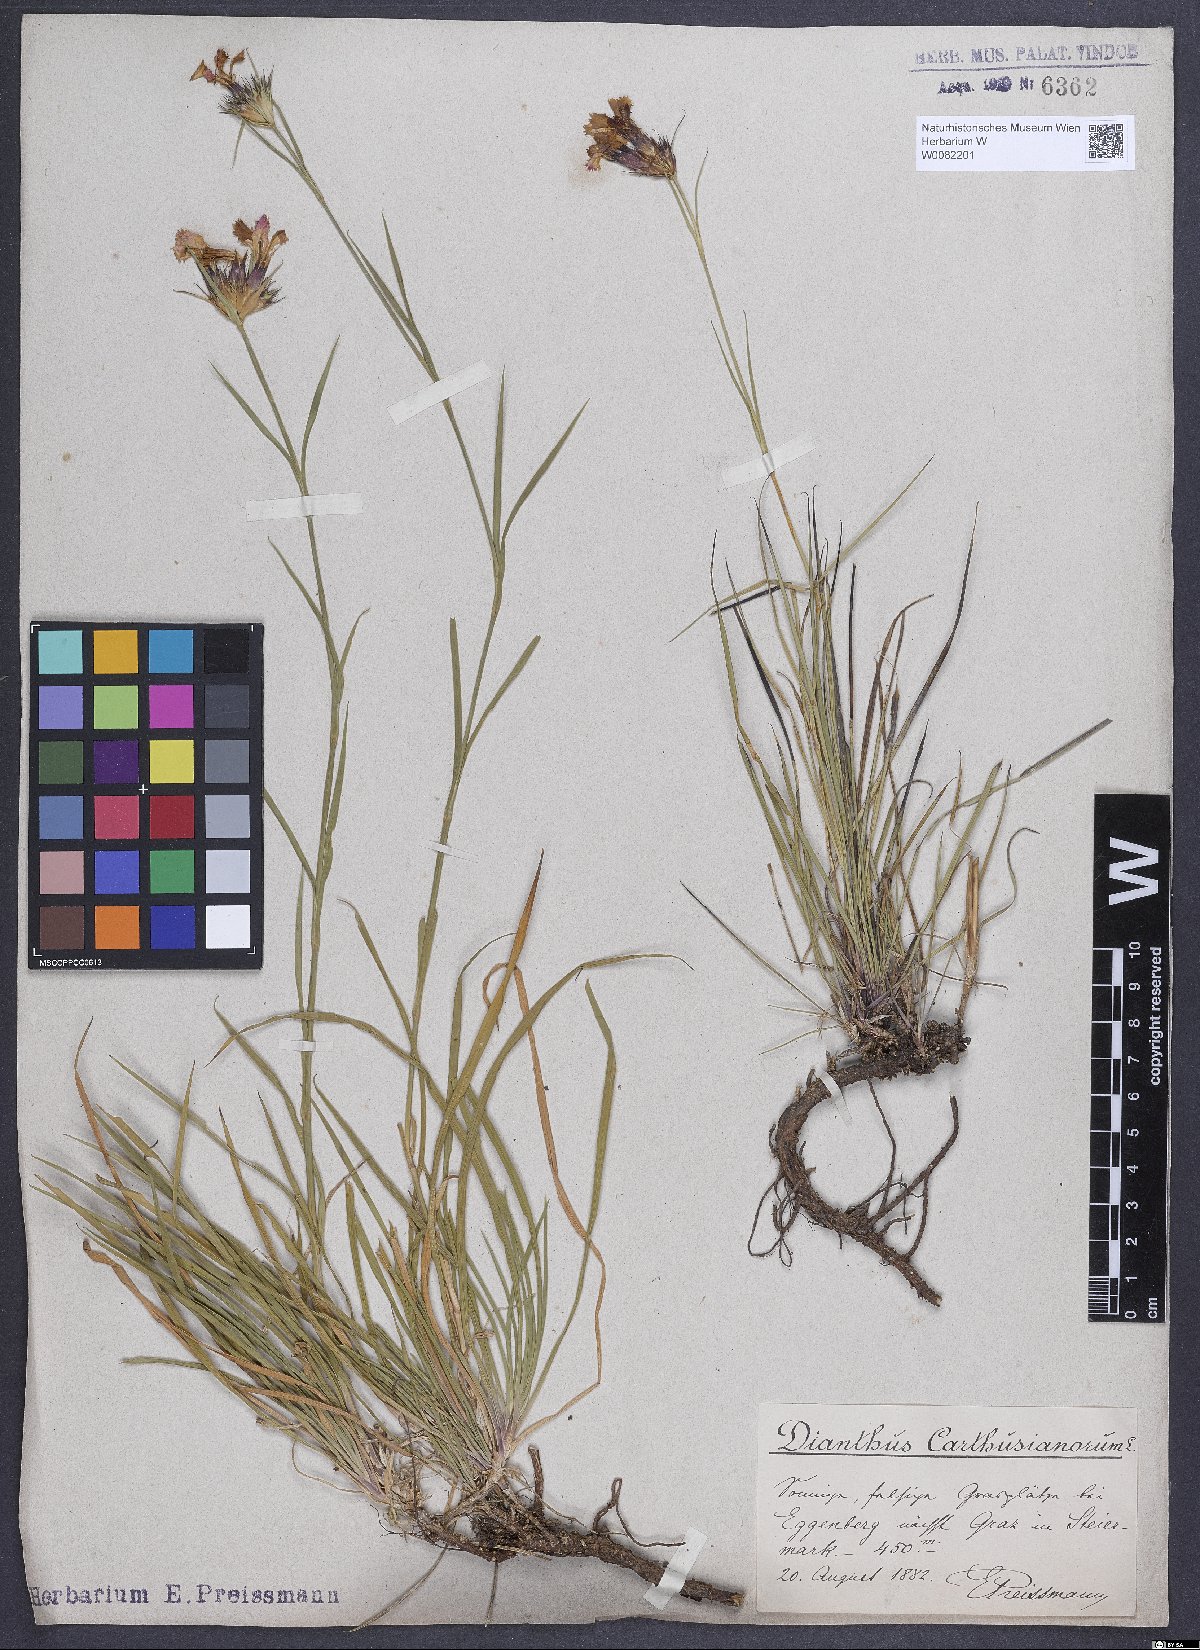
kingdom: Plantae
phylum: Tracheophyta
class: Magnoliopsida
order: Caryophyllales
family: Caryophyllaceae
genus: Dianthus
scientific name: Dianthus carthusianorum
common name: Carthusian pink
